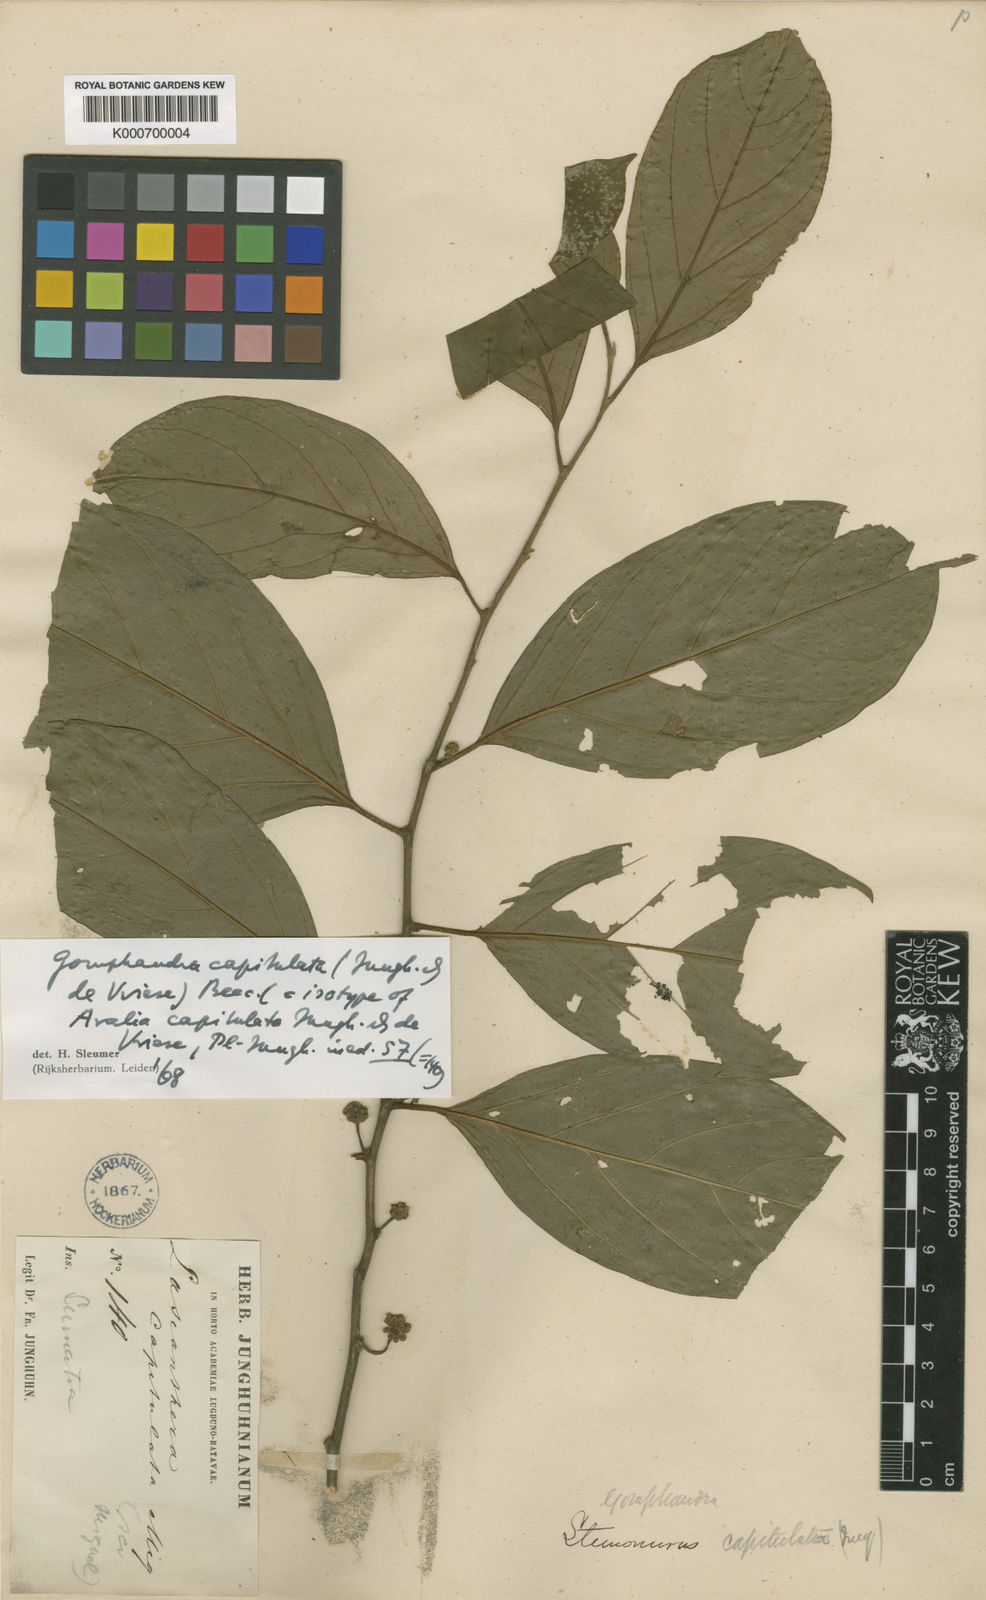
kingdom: Plantae
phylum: Tracheophyta
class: Magnoliopsida
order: Cardiopteridales
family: Stemonuraceae
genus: Gomphandra
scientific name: Gomphandra capitulata
